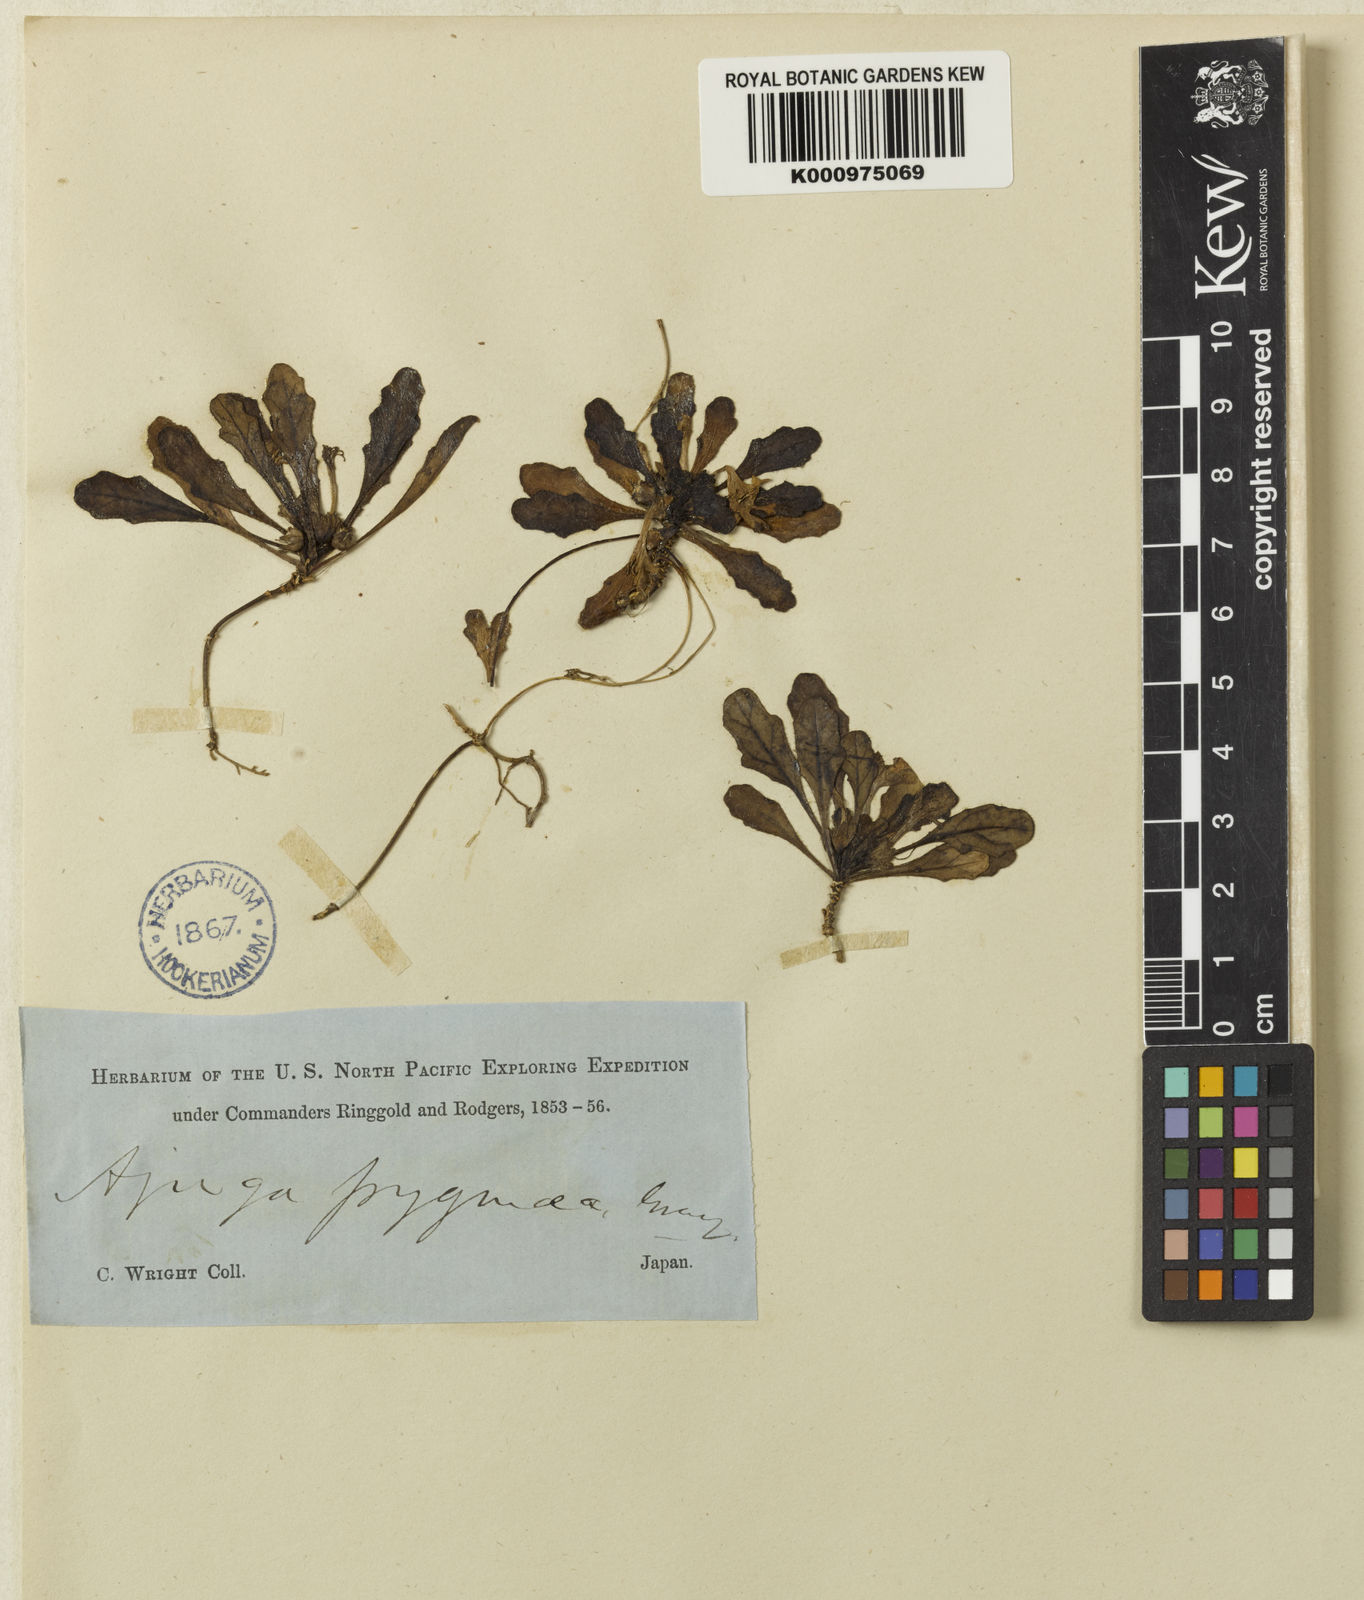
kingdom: Plantae
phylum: Tracheophyta
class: Magnoliopsida
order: Lamiales
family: Lamiaceae
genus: Ajuga
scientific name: Ajuga pygmaea
